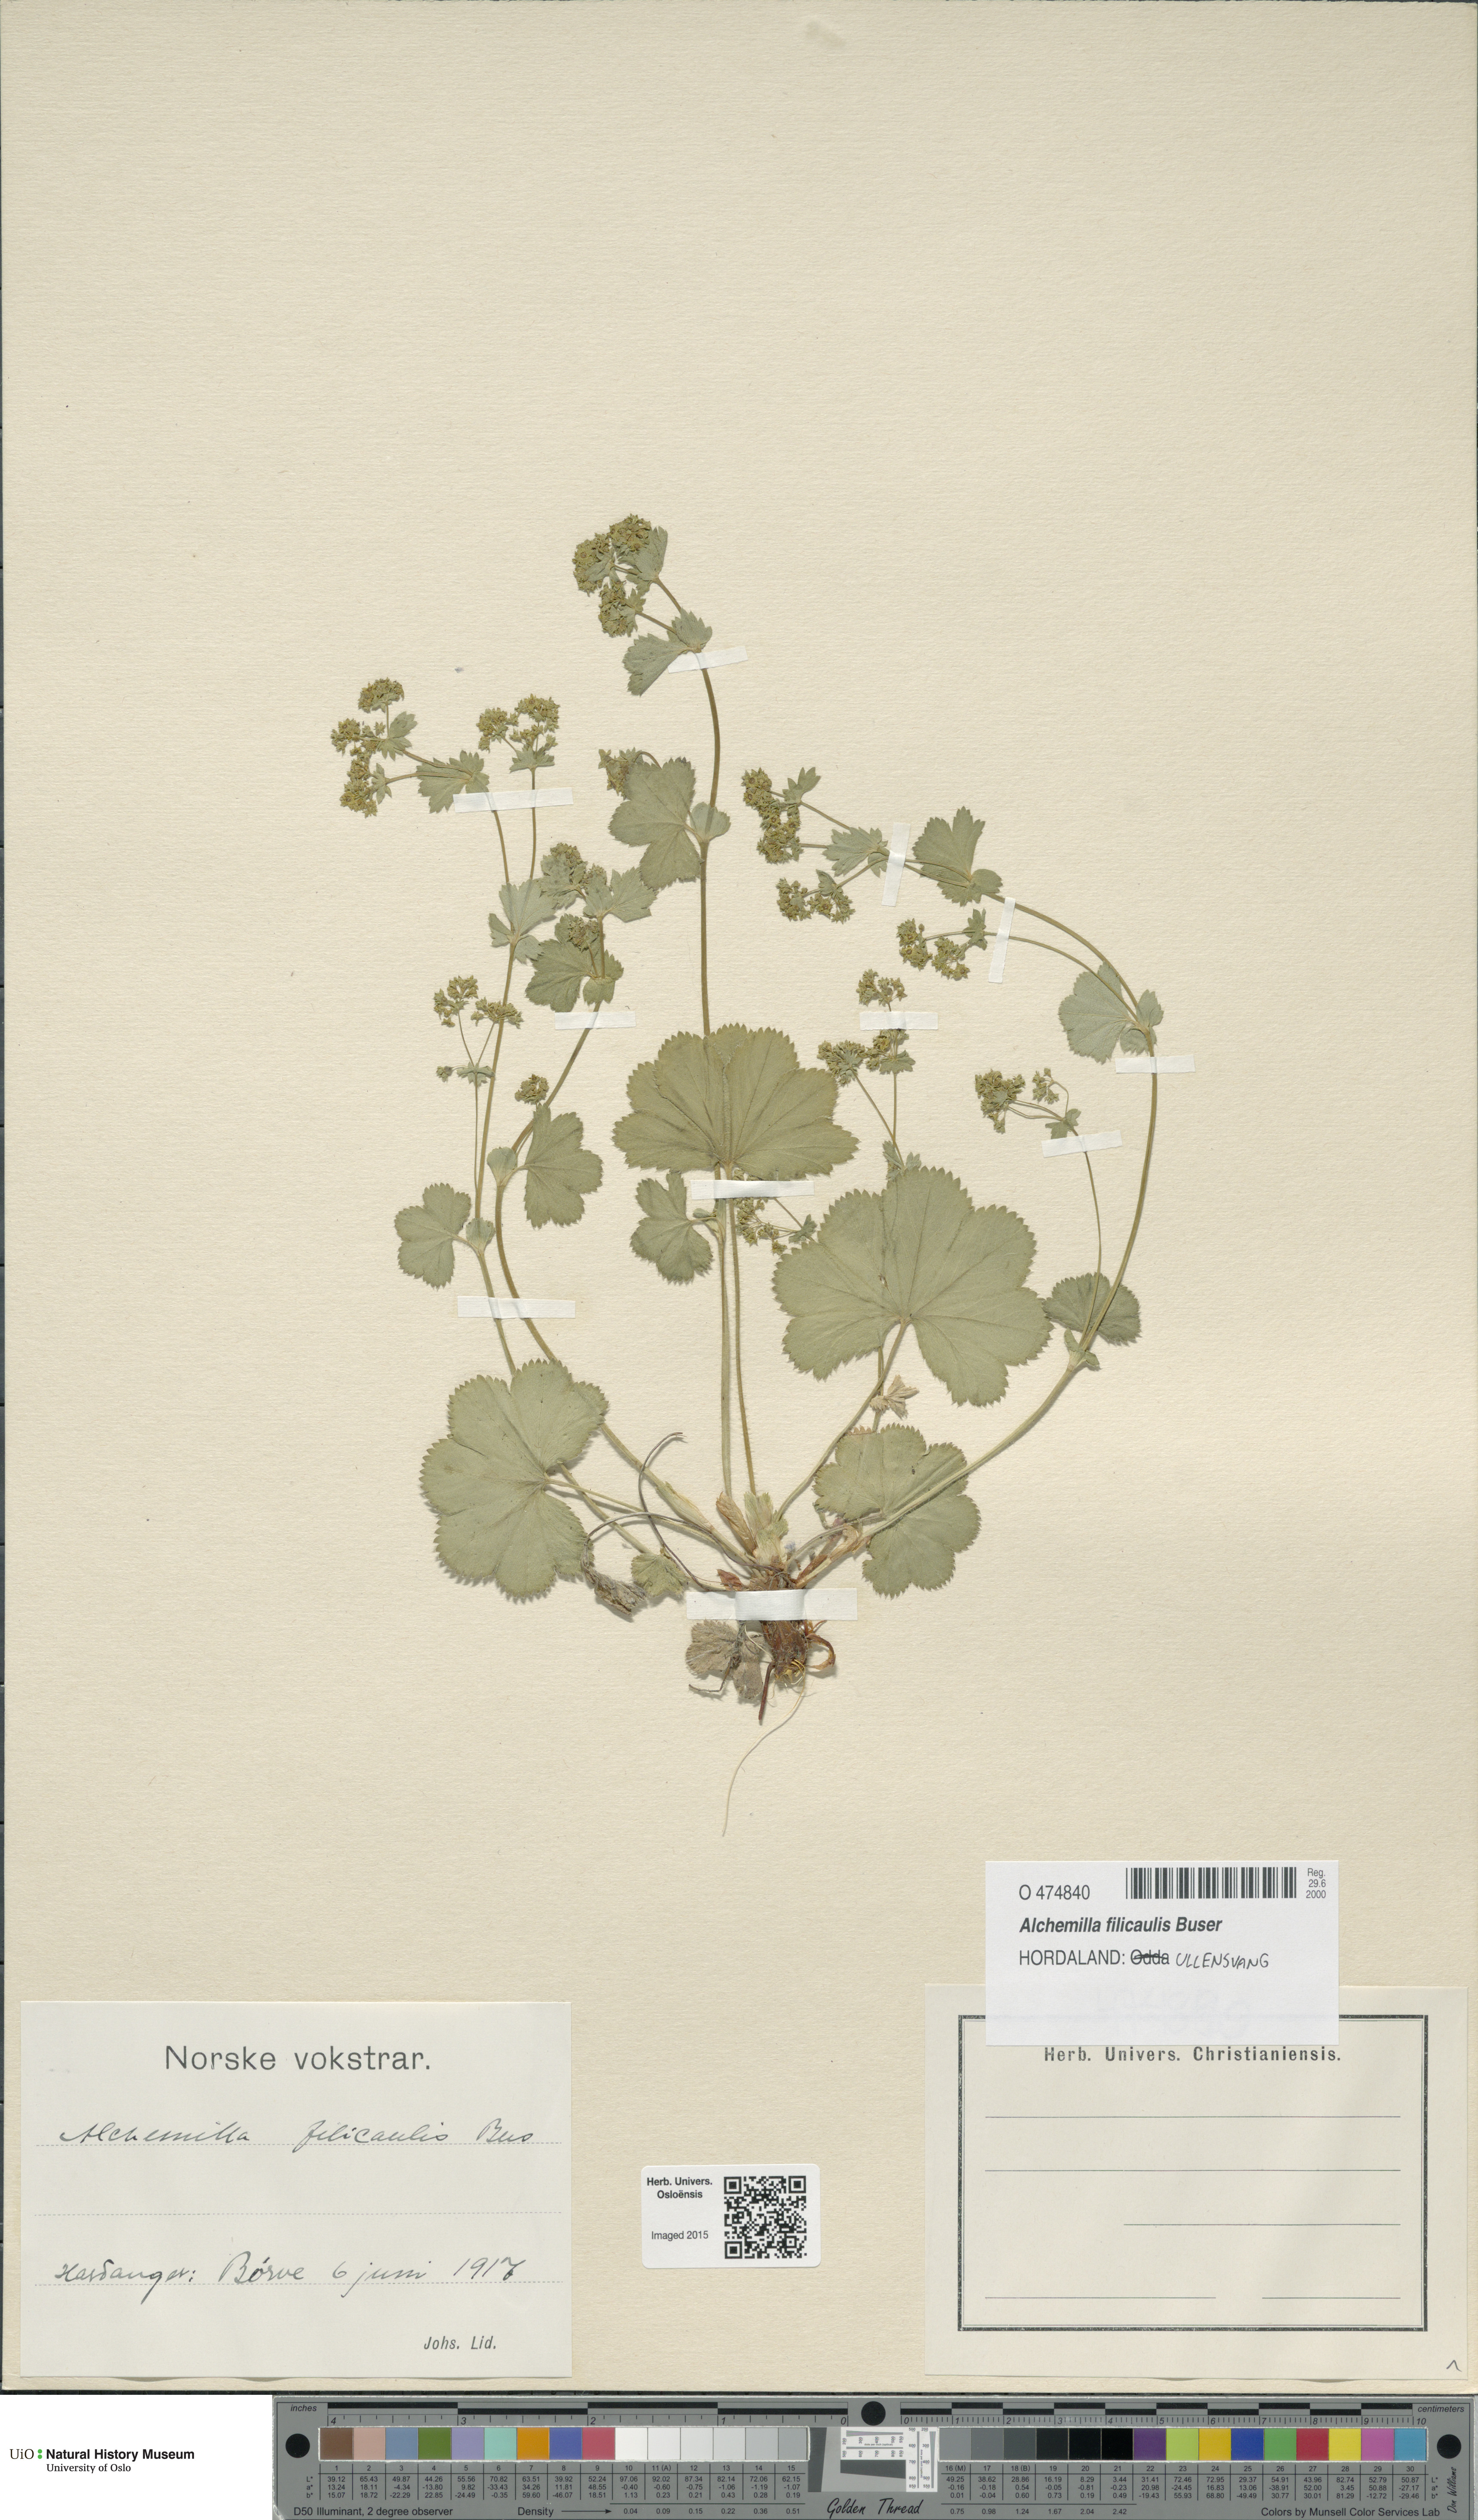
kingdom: Plantae
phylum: Tracheophyta
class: Magnoliopsida
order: Rosales
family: Rosaceae
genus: Alchemilla
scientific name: Alchemilla filicaulis
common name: Hairy lady's-mantle
